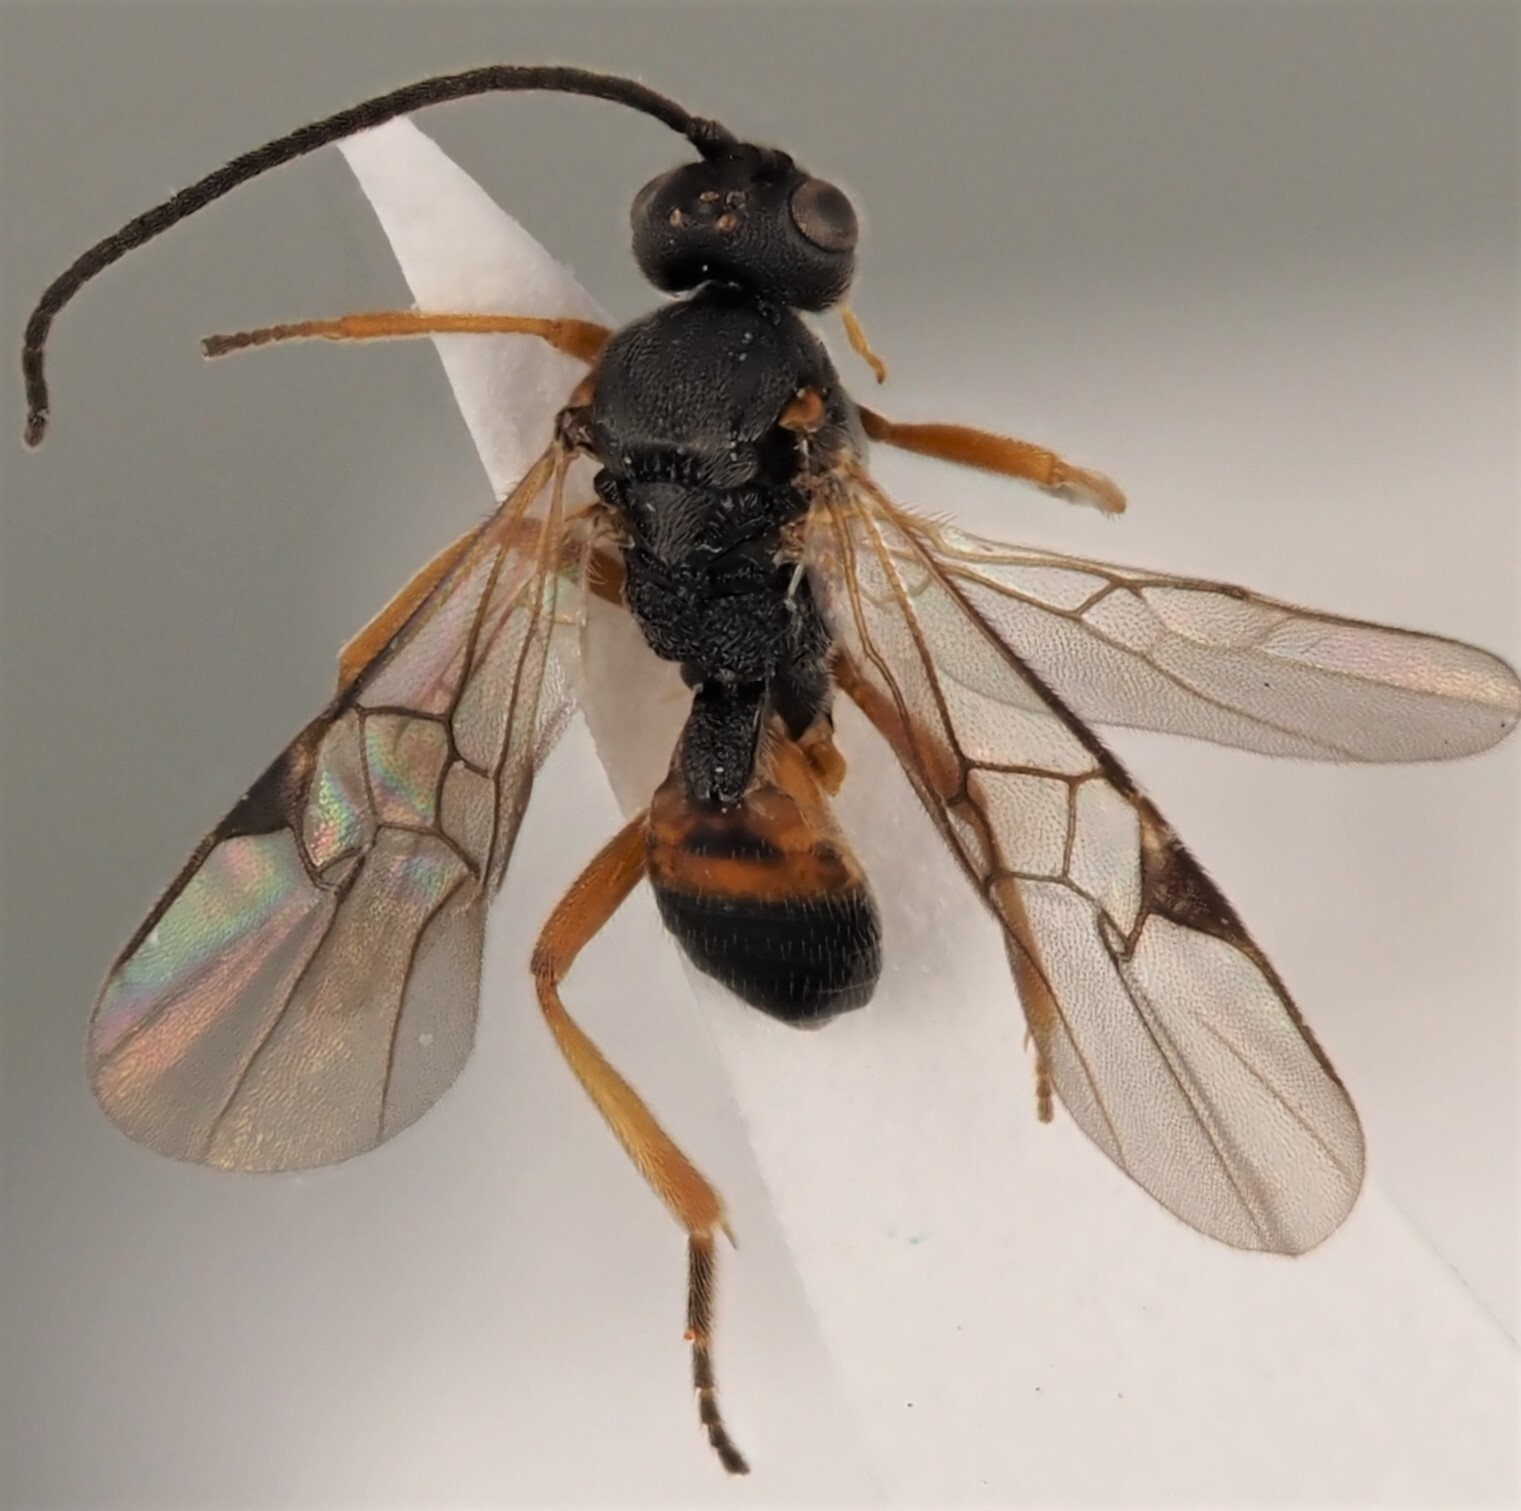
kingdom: Animalia
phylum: Arthropoda
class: Insecta
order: Hymenoptera
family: Braconidae
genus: Microplitis
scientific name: Microplitis tuberculifer
